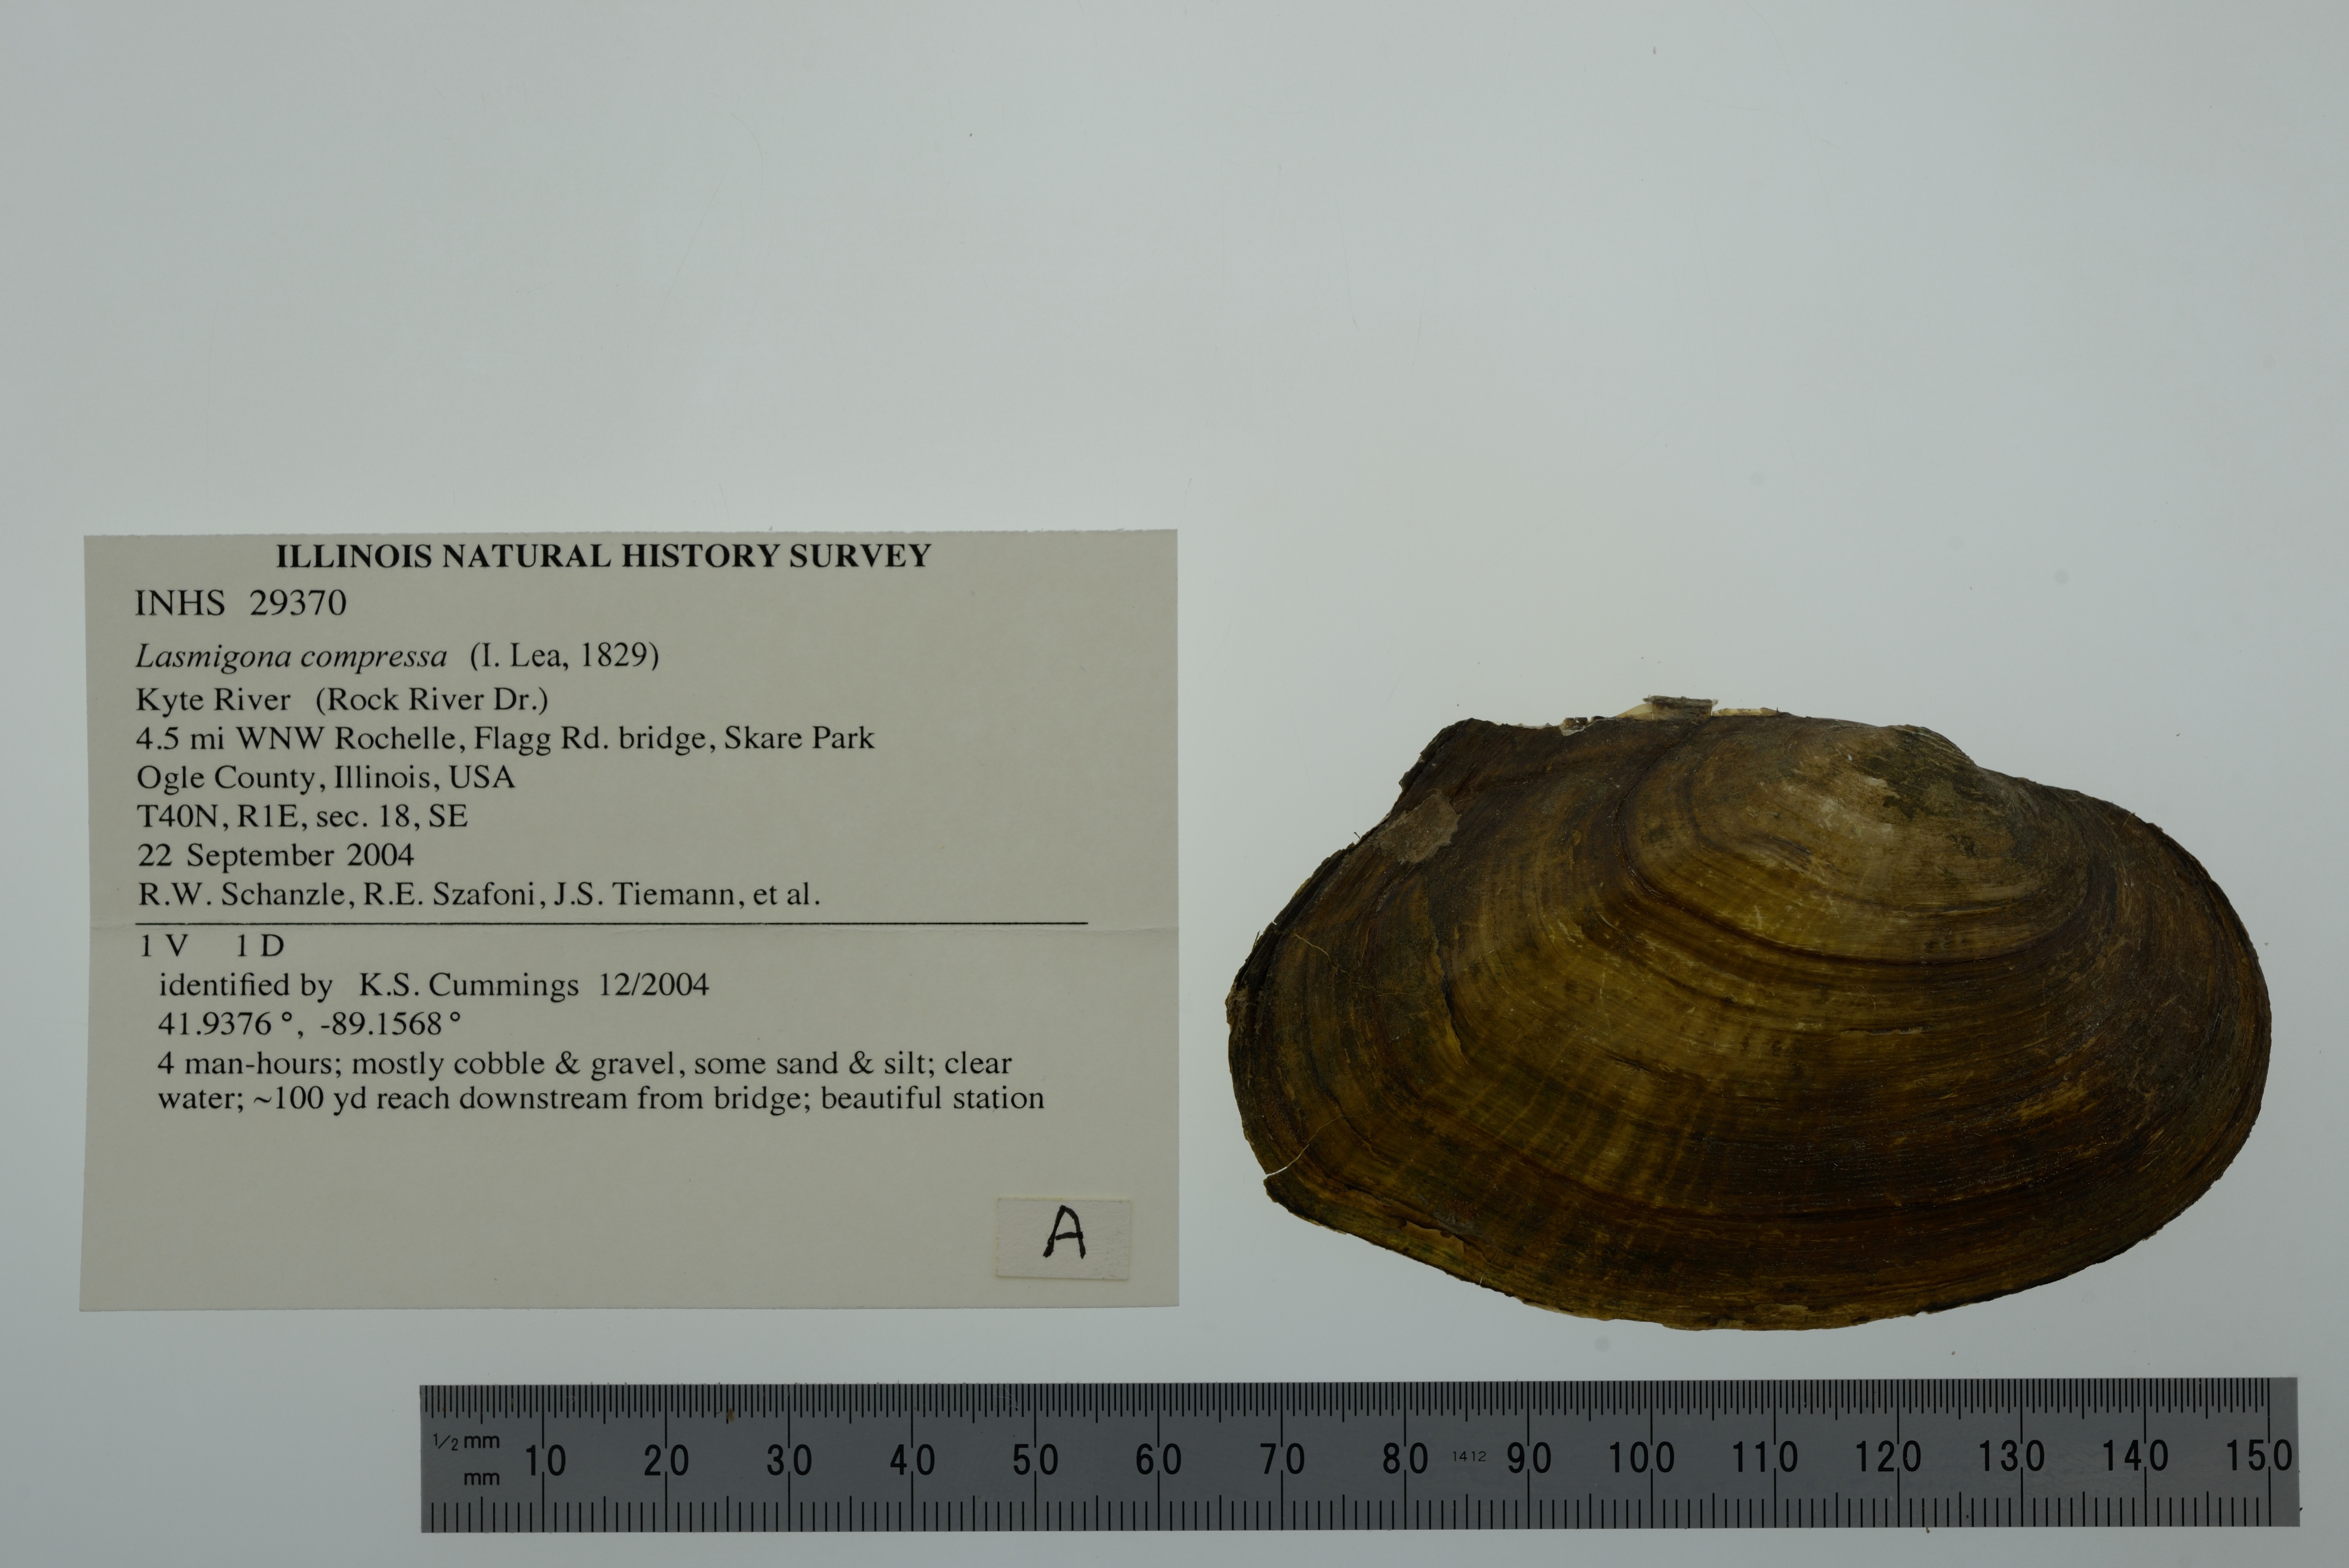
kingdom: Animalia
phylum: Mollusca
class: Bivalvia
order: Unionida
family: Unionidae
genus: Lasmigona
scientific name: Lasmigona compressa
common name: Creek heelsplitter
